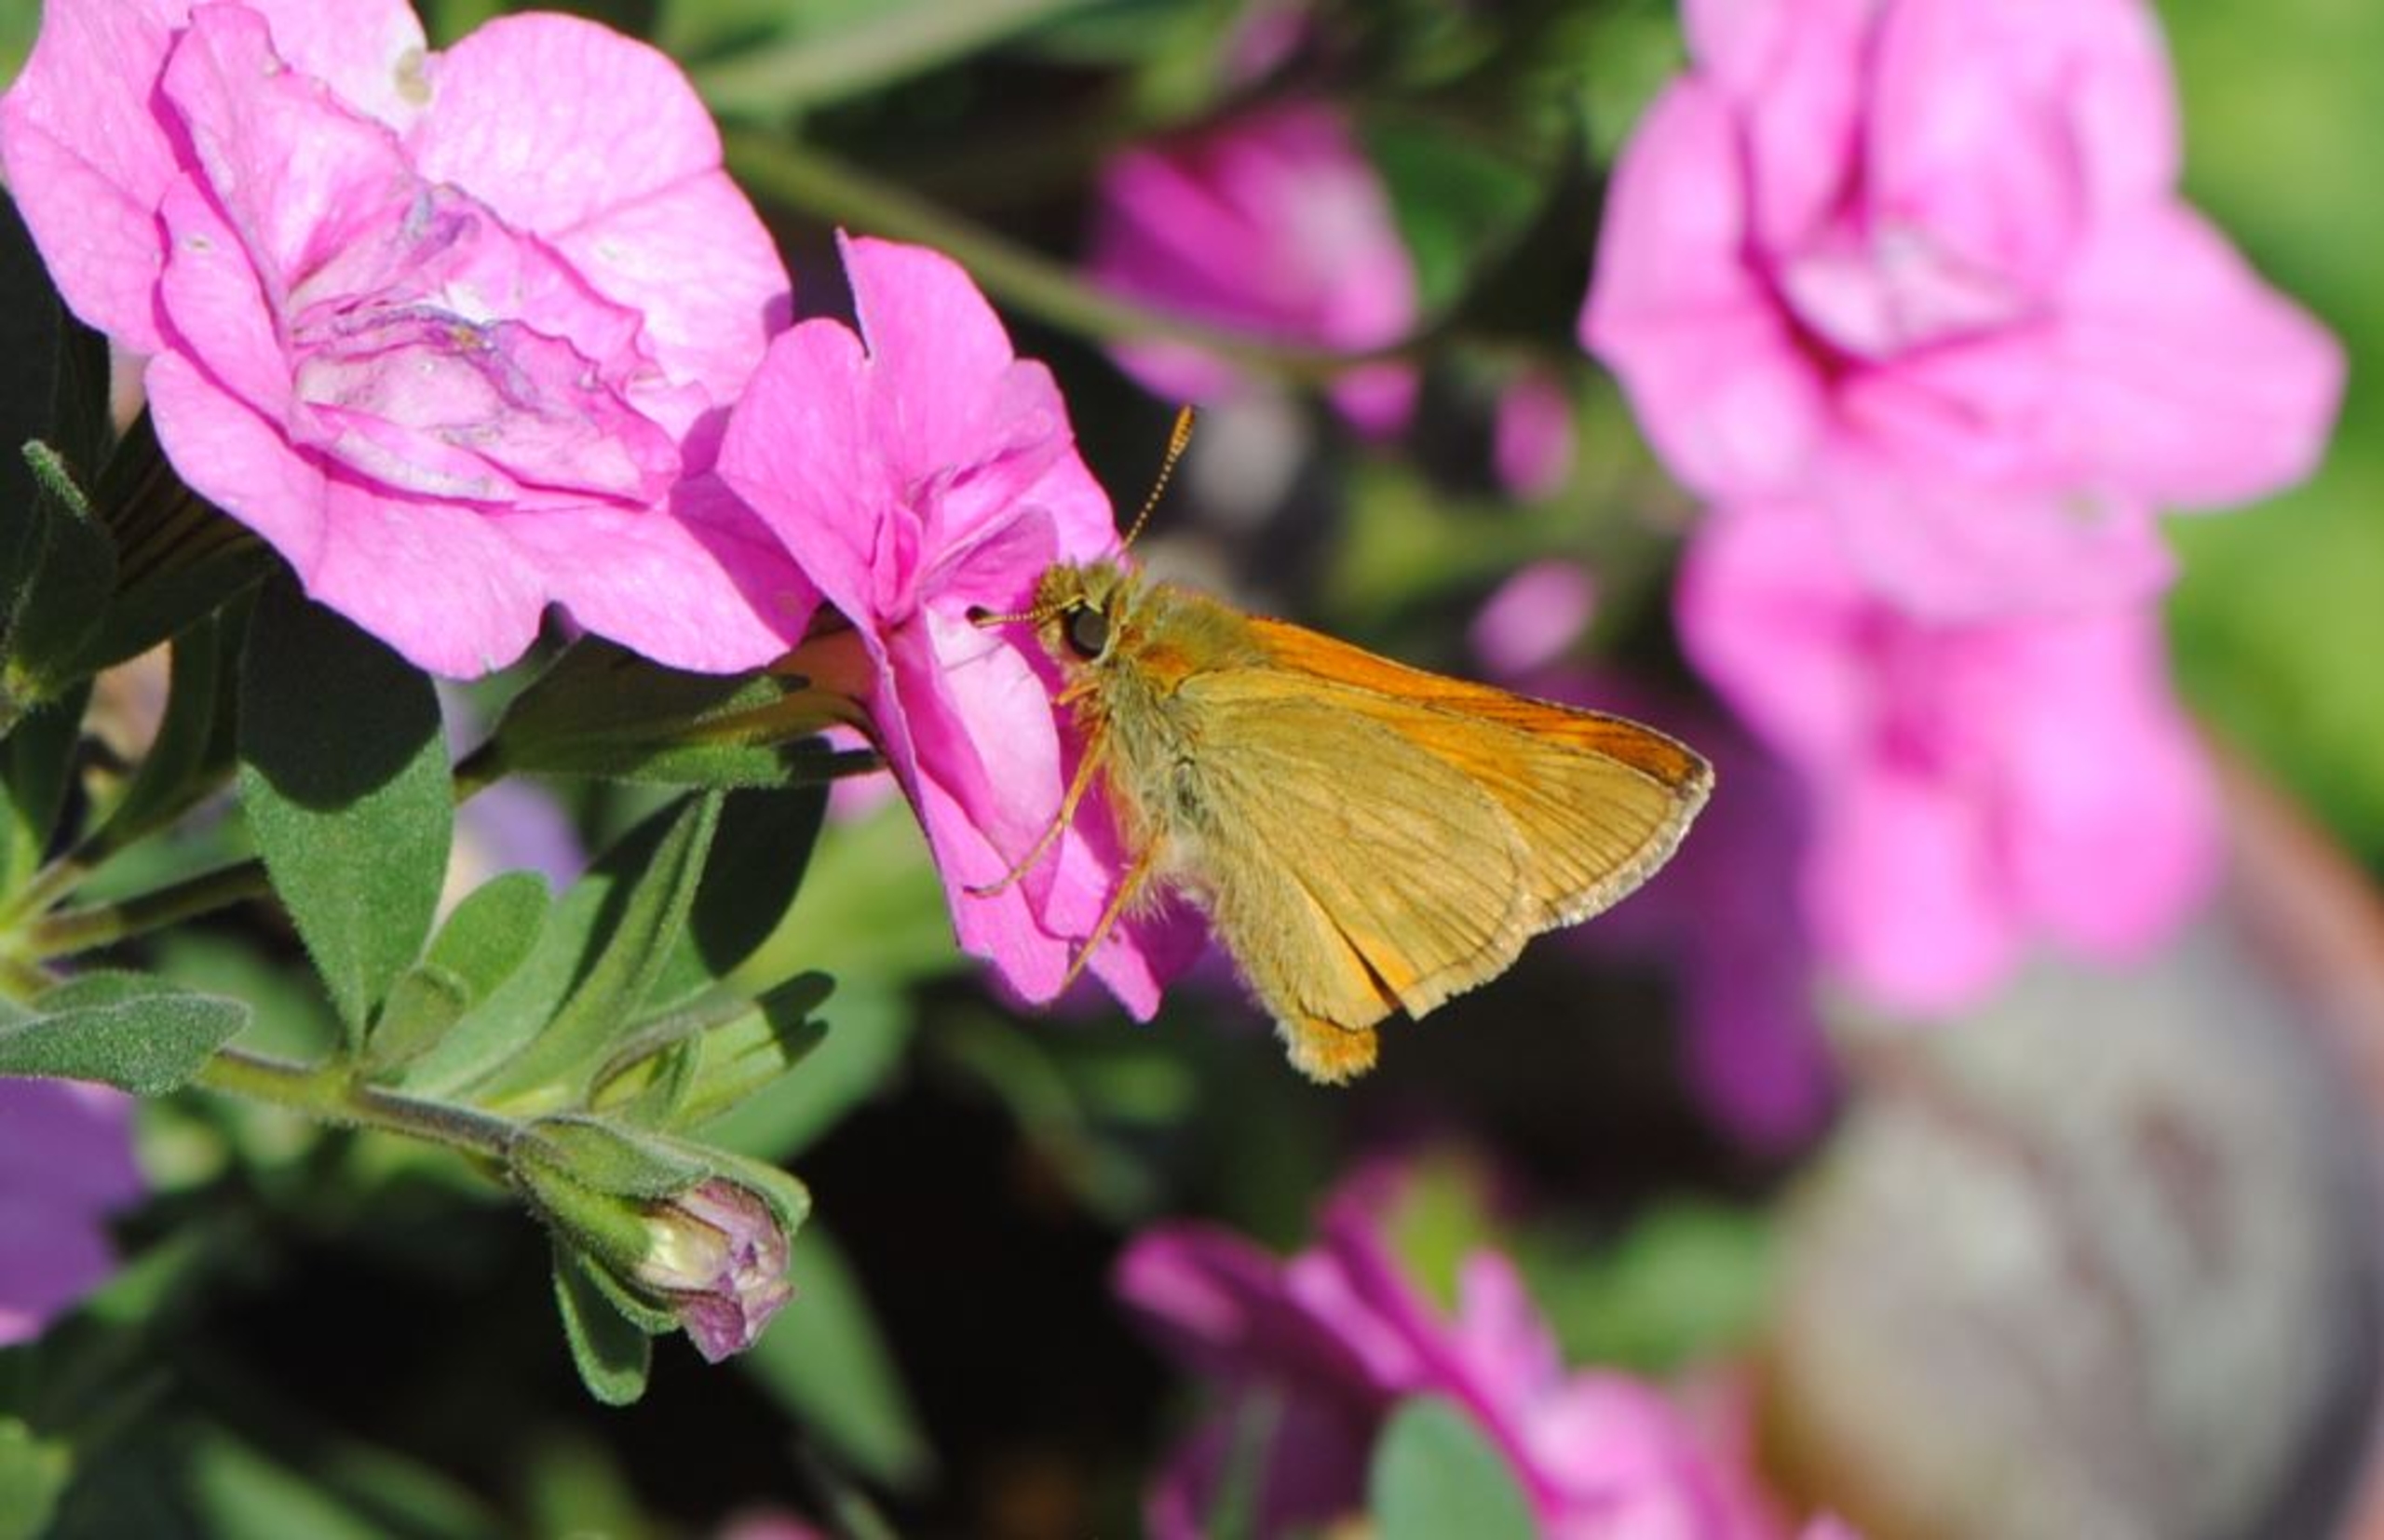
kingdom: Animalia
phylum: Arthropoda
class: Insecta
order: Lepidoptera
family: Hesperiidae
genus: Ochlodes
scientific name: Ochlodes venata
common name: Stor bredpande
